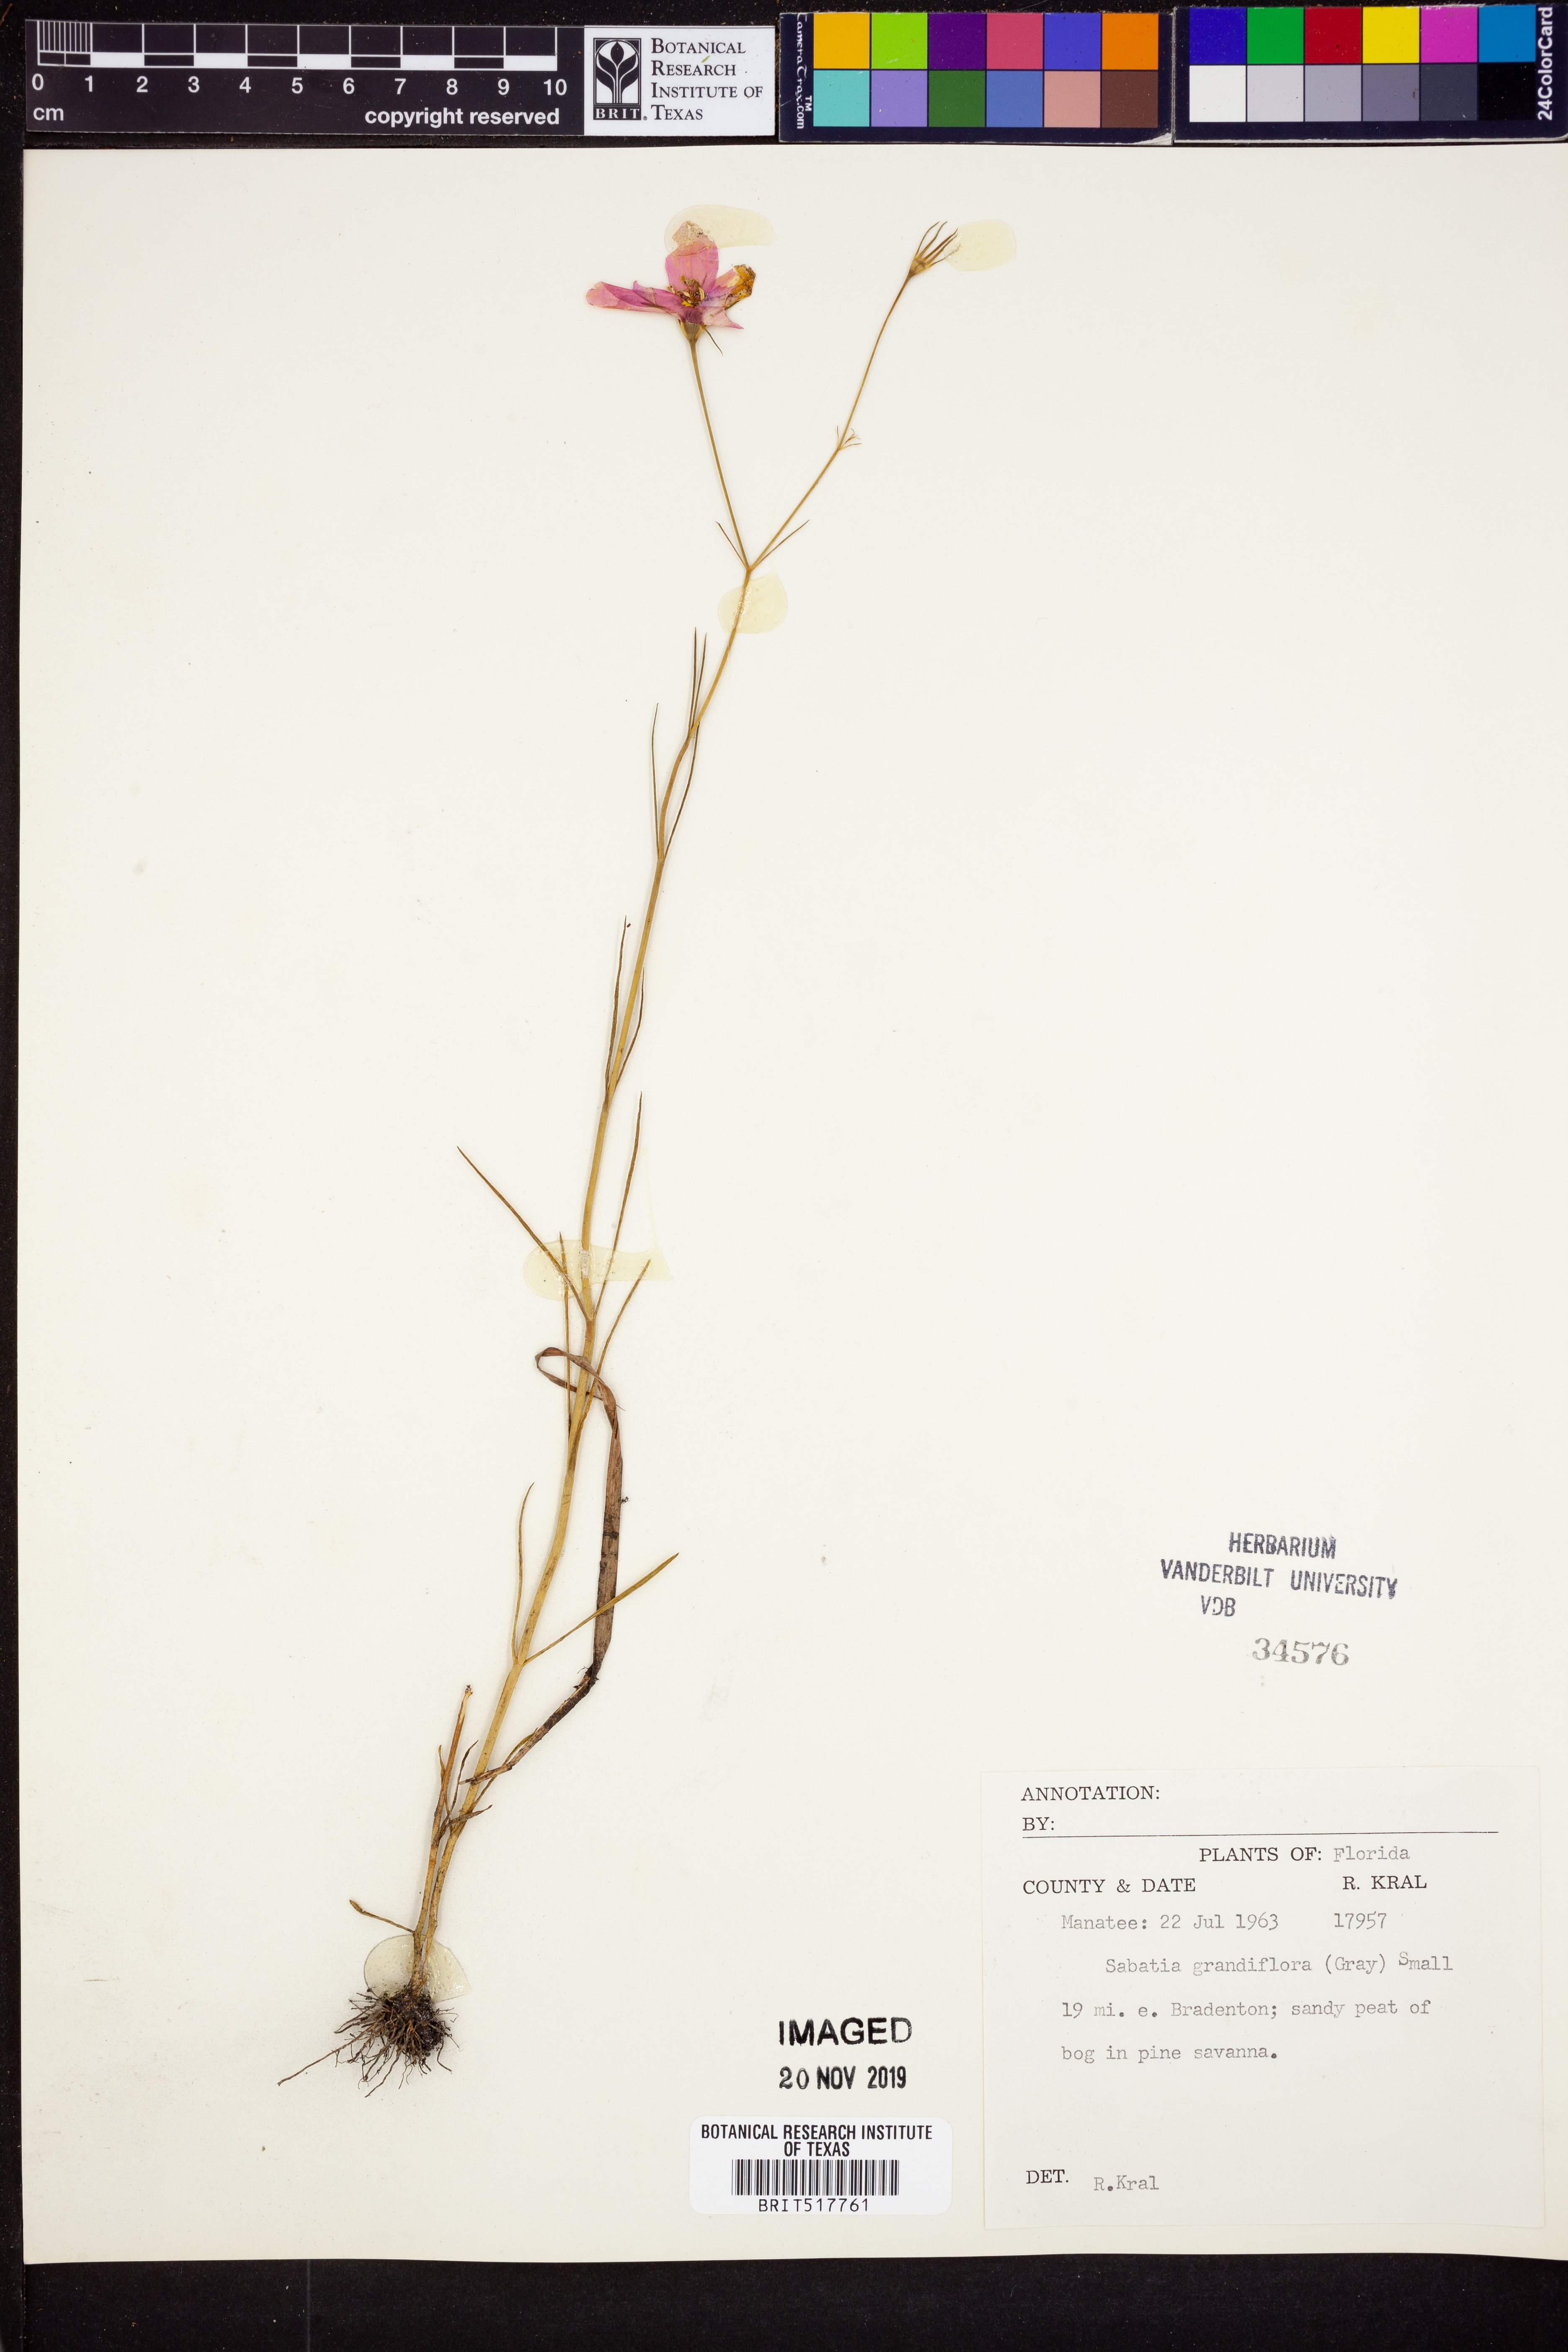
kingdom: Plantae
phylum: Tracheophyta
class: Magnoliopsida
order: Gentianales
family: Gentianaceae
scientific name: Gentianaceae
